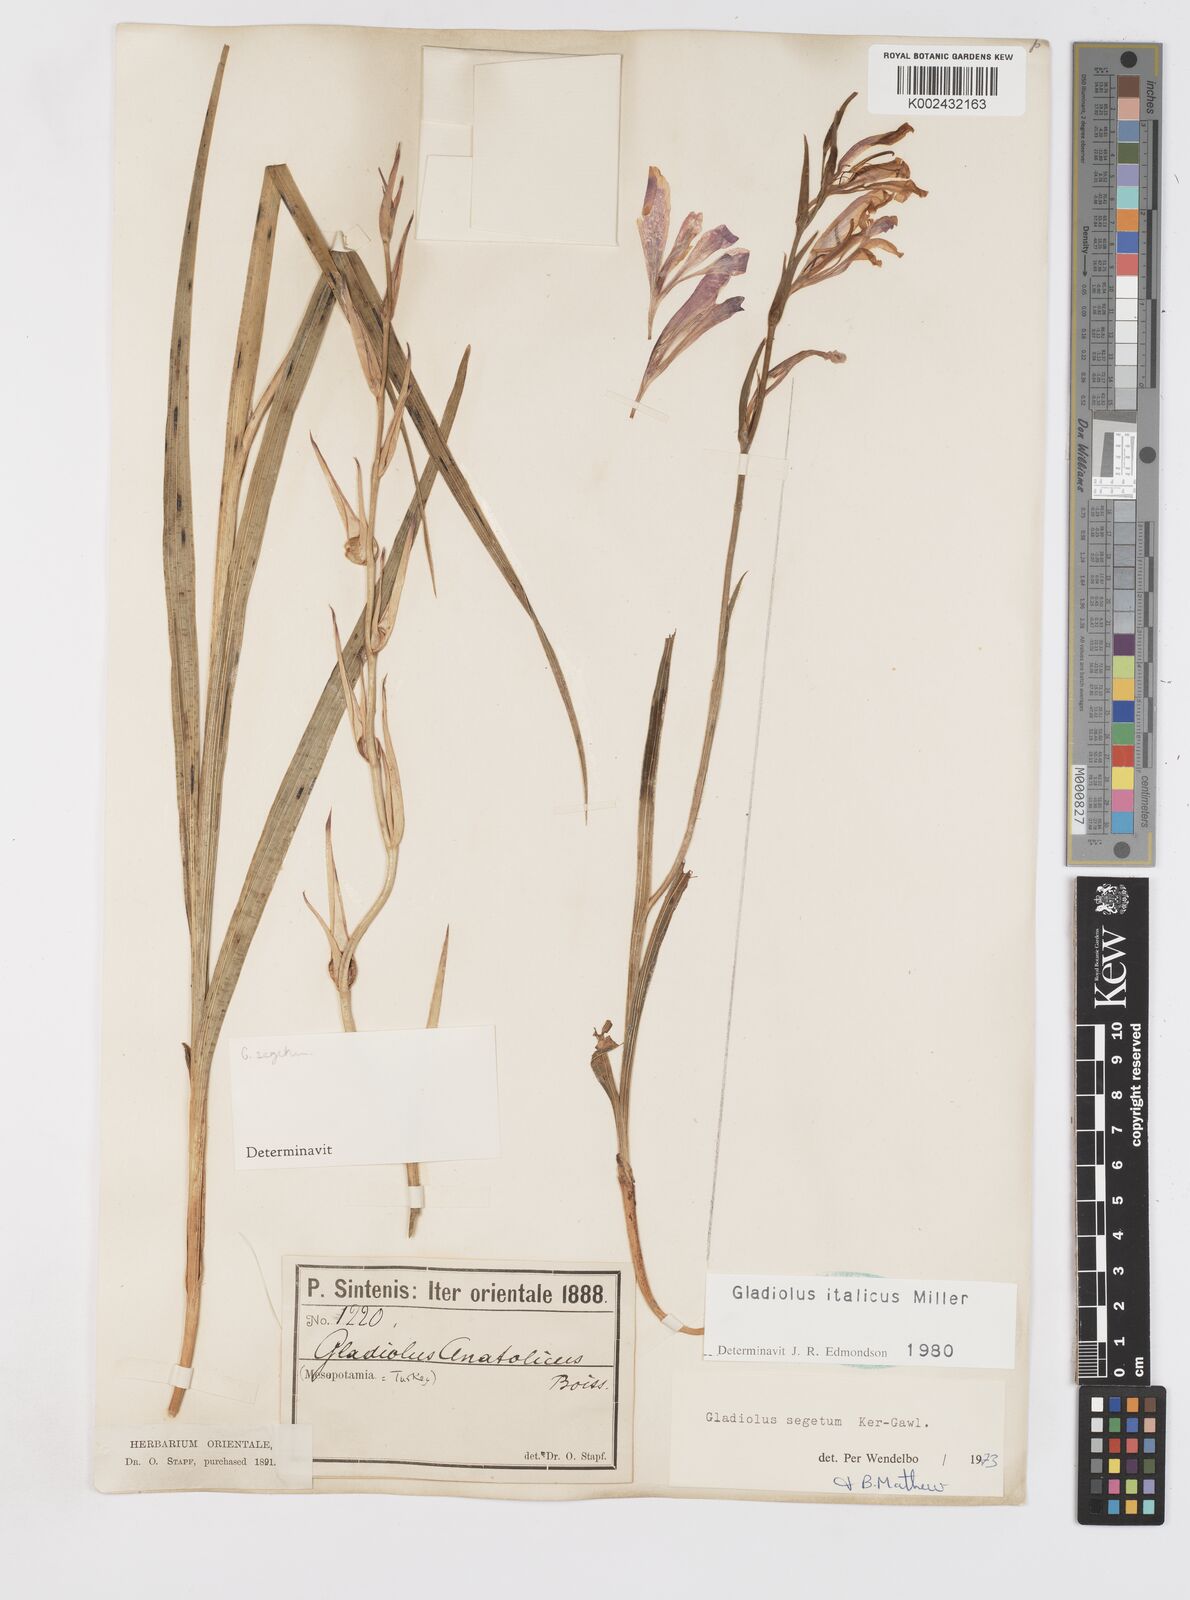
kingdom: Plantae
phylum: Tracheophyta
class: Liliopsida
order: Asparagales
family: Iridaceae
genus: Gladiolus
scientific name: Gladiolus italicus
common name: Field gladiolus
